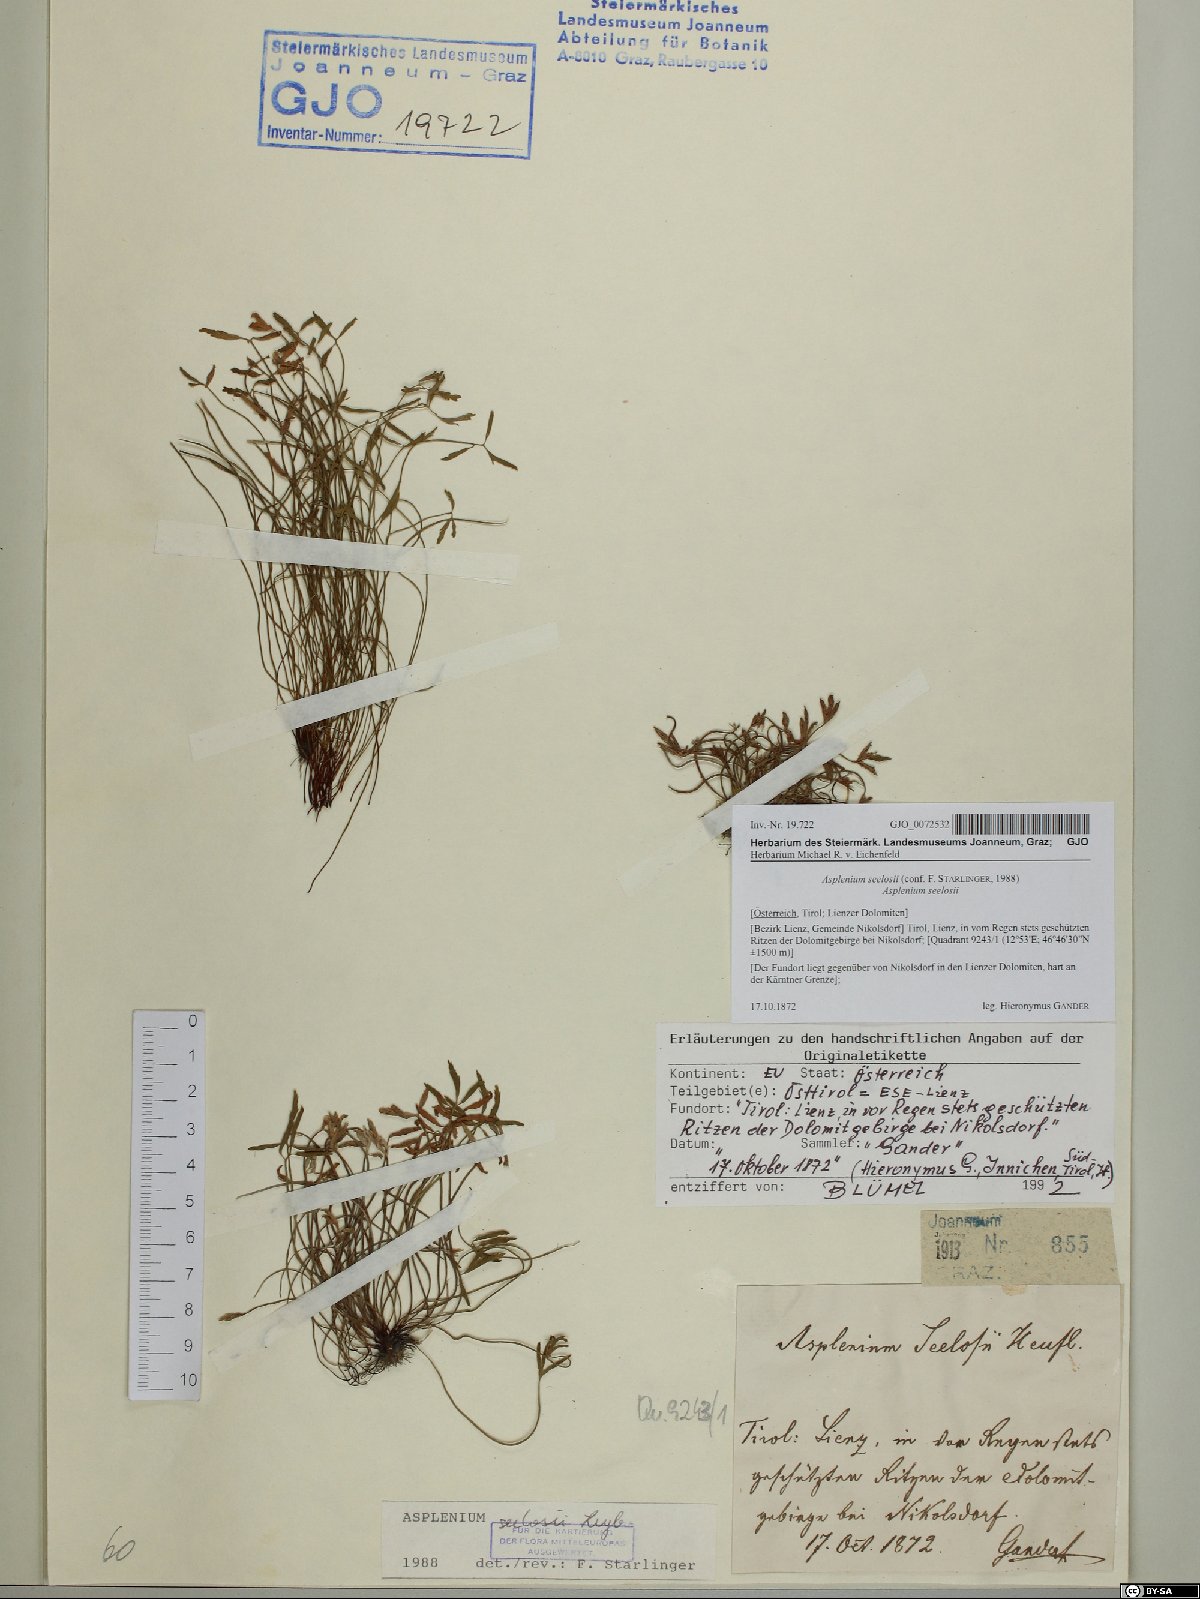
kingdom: Plantae
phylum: Tracheophyta
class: Polypodiopsida
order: Polypodiales
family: Aspleniaceae
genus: Asplenium
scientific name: Asplenium seelosii
